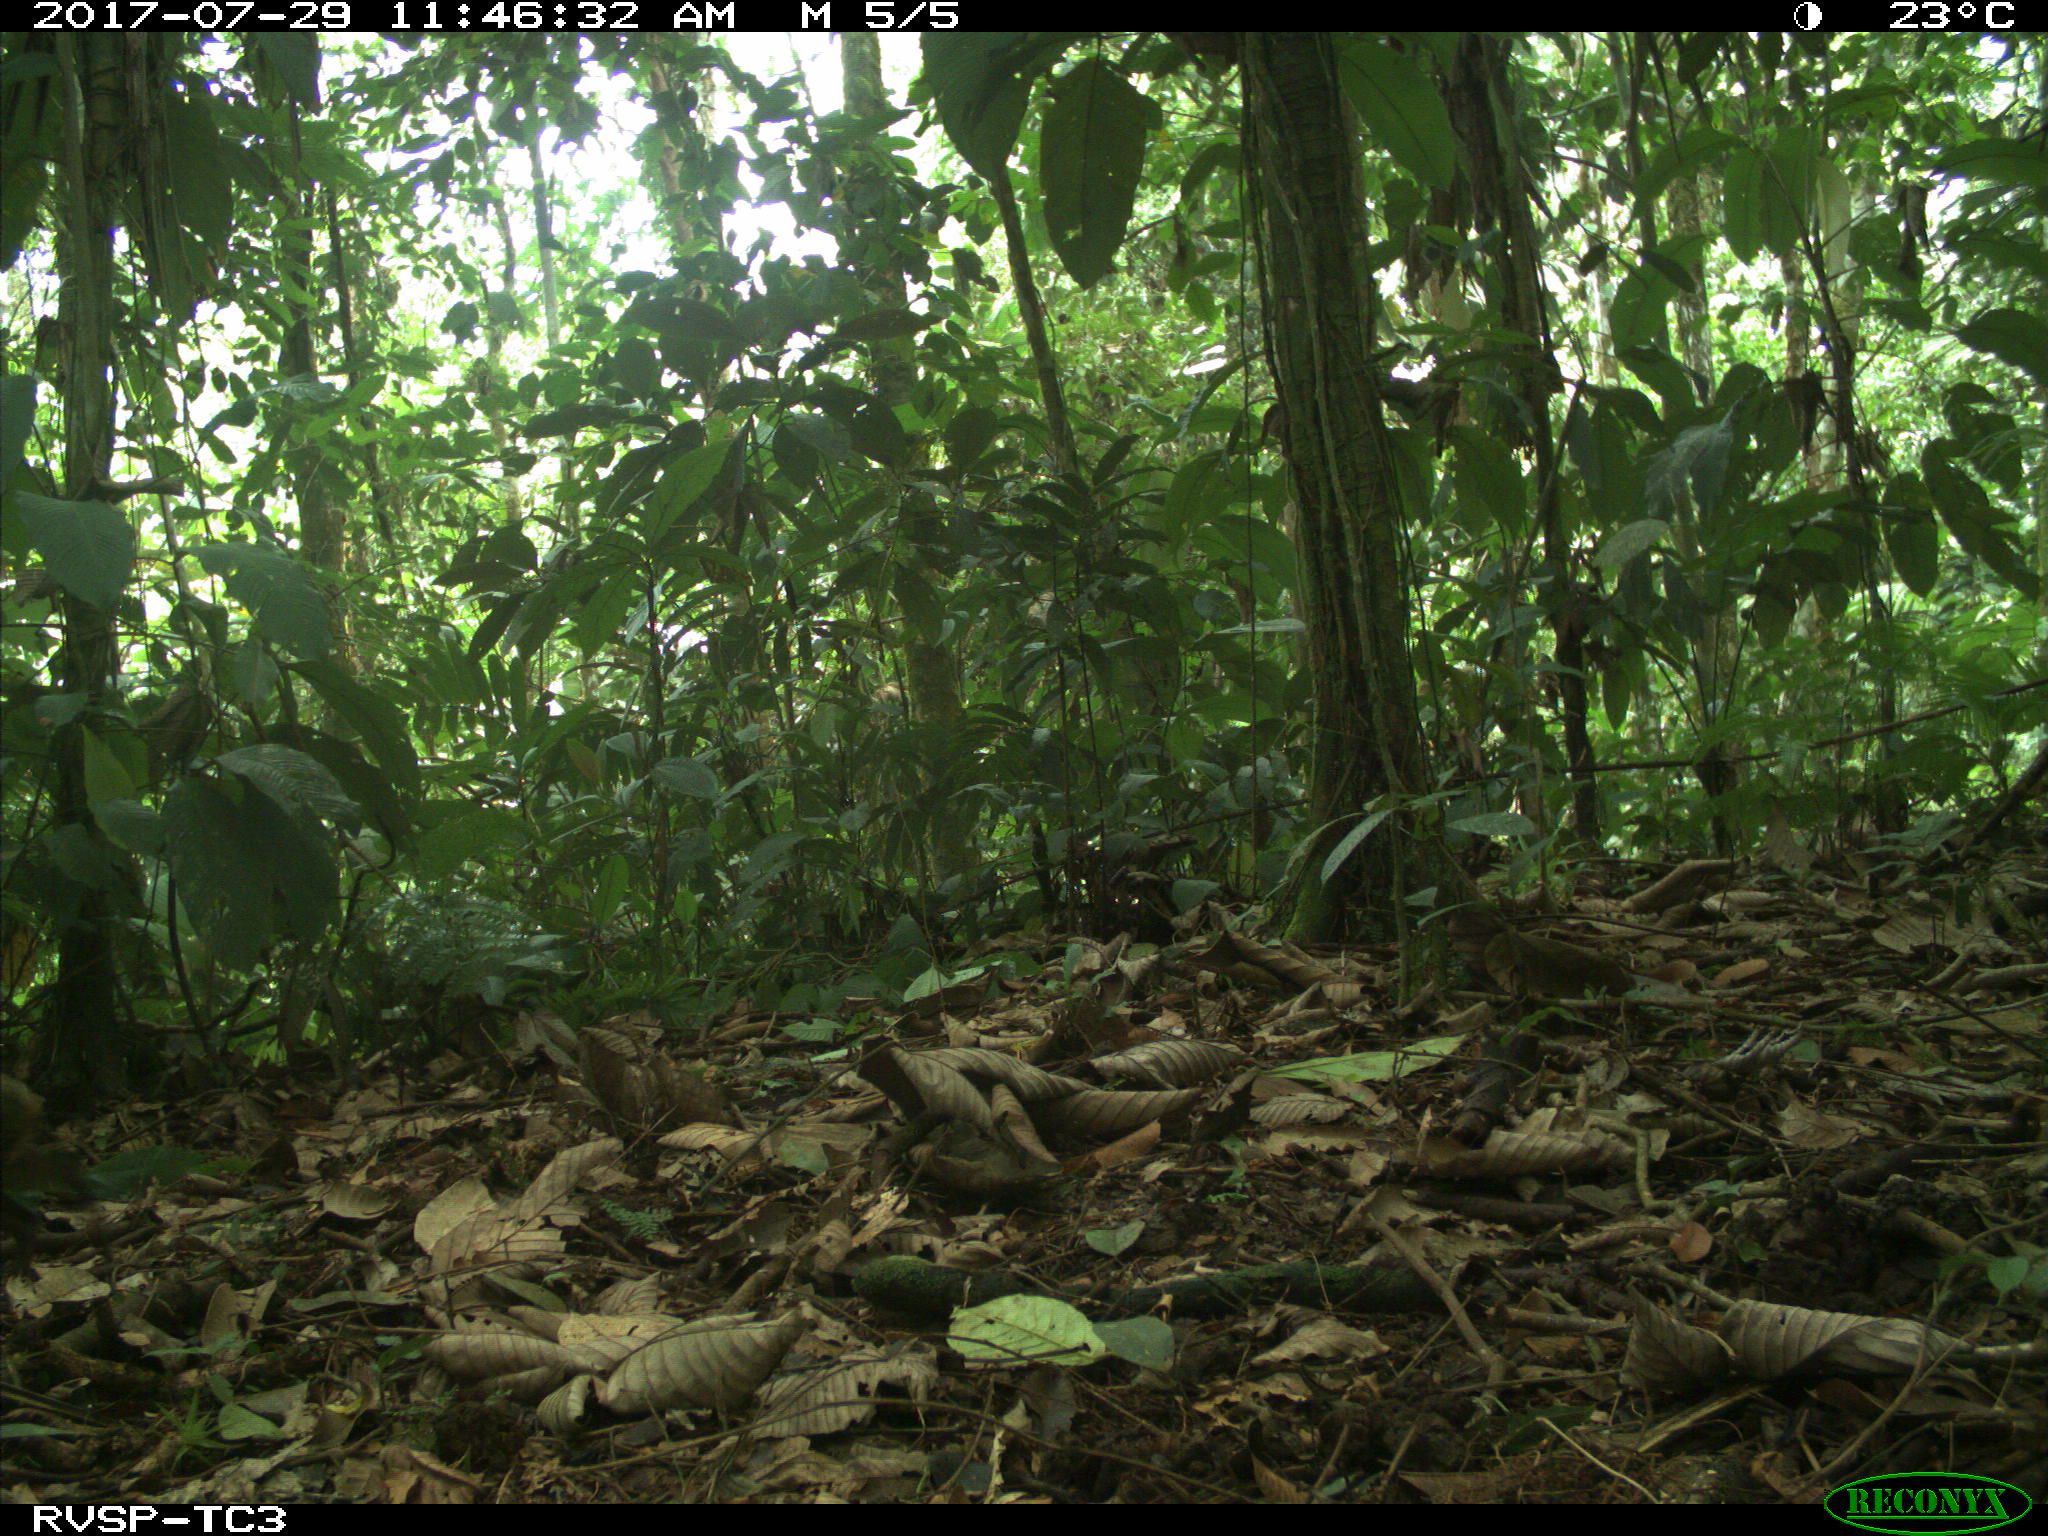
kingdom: Animalia
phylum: Chordata
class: Mammalia
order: Rodentia
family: Dasyproctidae
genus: Dasyprocta
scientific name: Dasyprocta punctata
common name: Central american agouti
